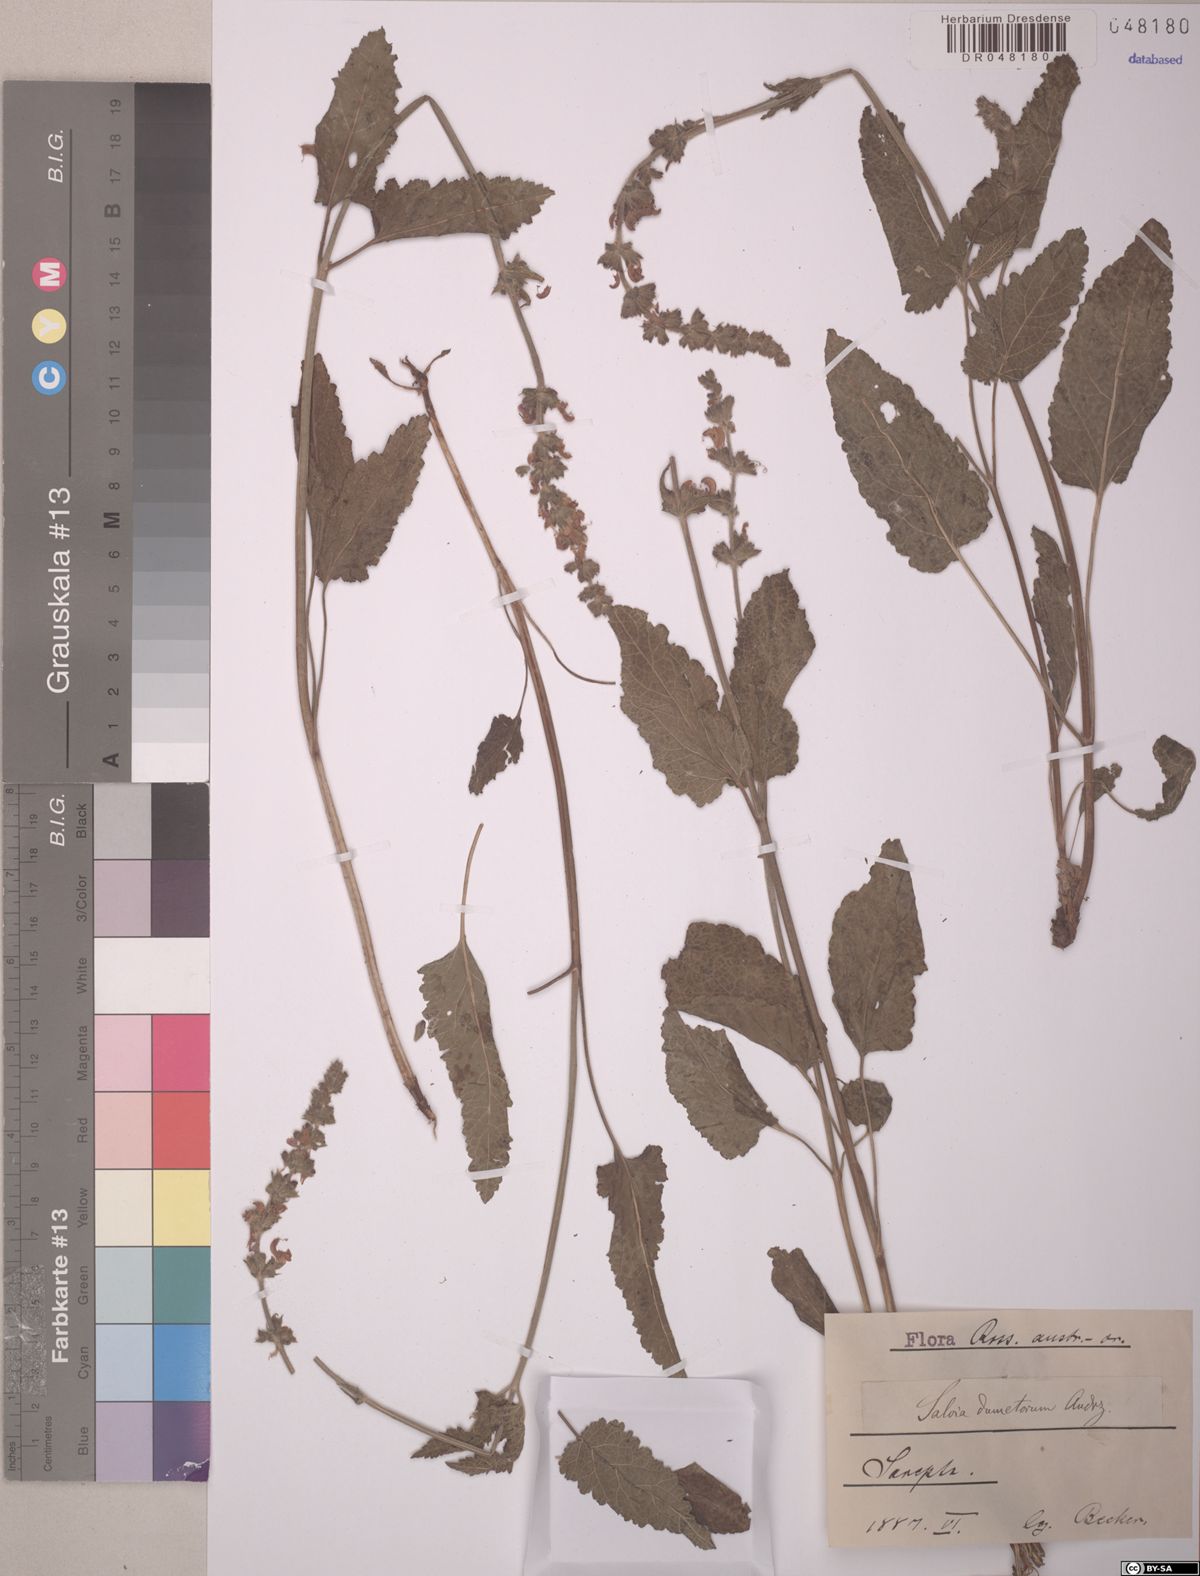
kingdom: Plantae
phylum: Tracheophyta
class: Magnoliopsida
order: Lamiales
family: Lamiaceae
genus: Salvia
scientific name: Salvia dumetorum
